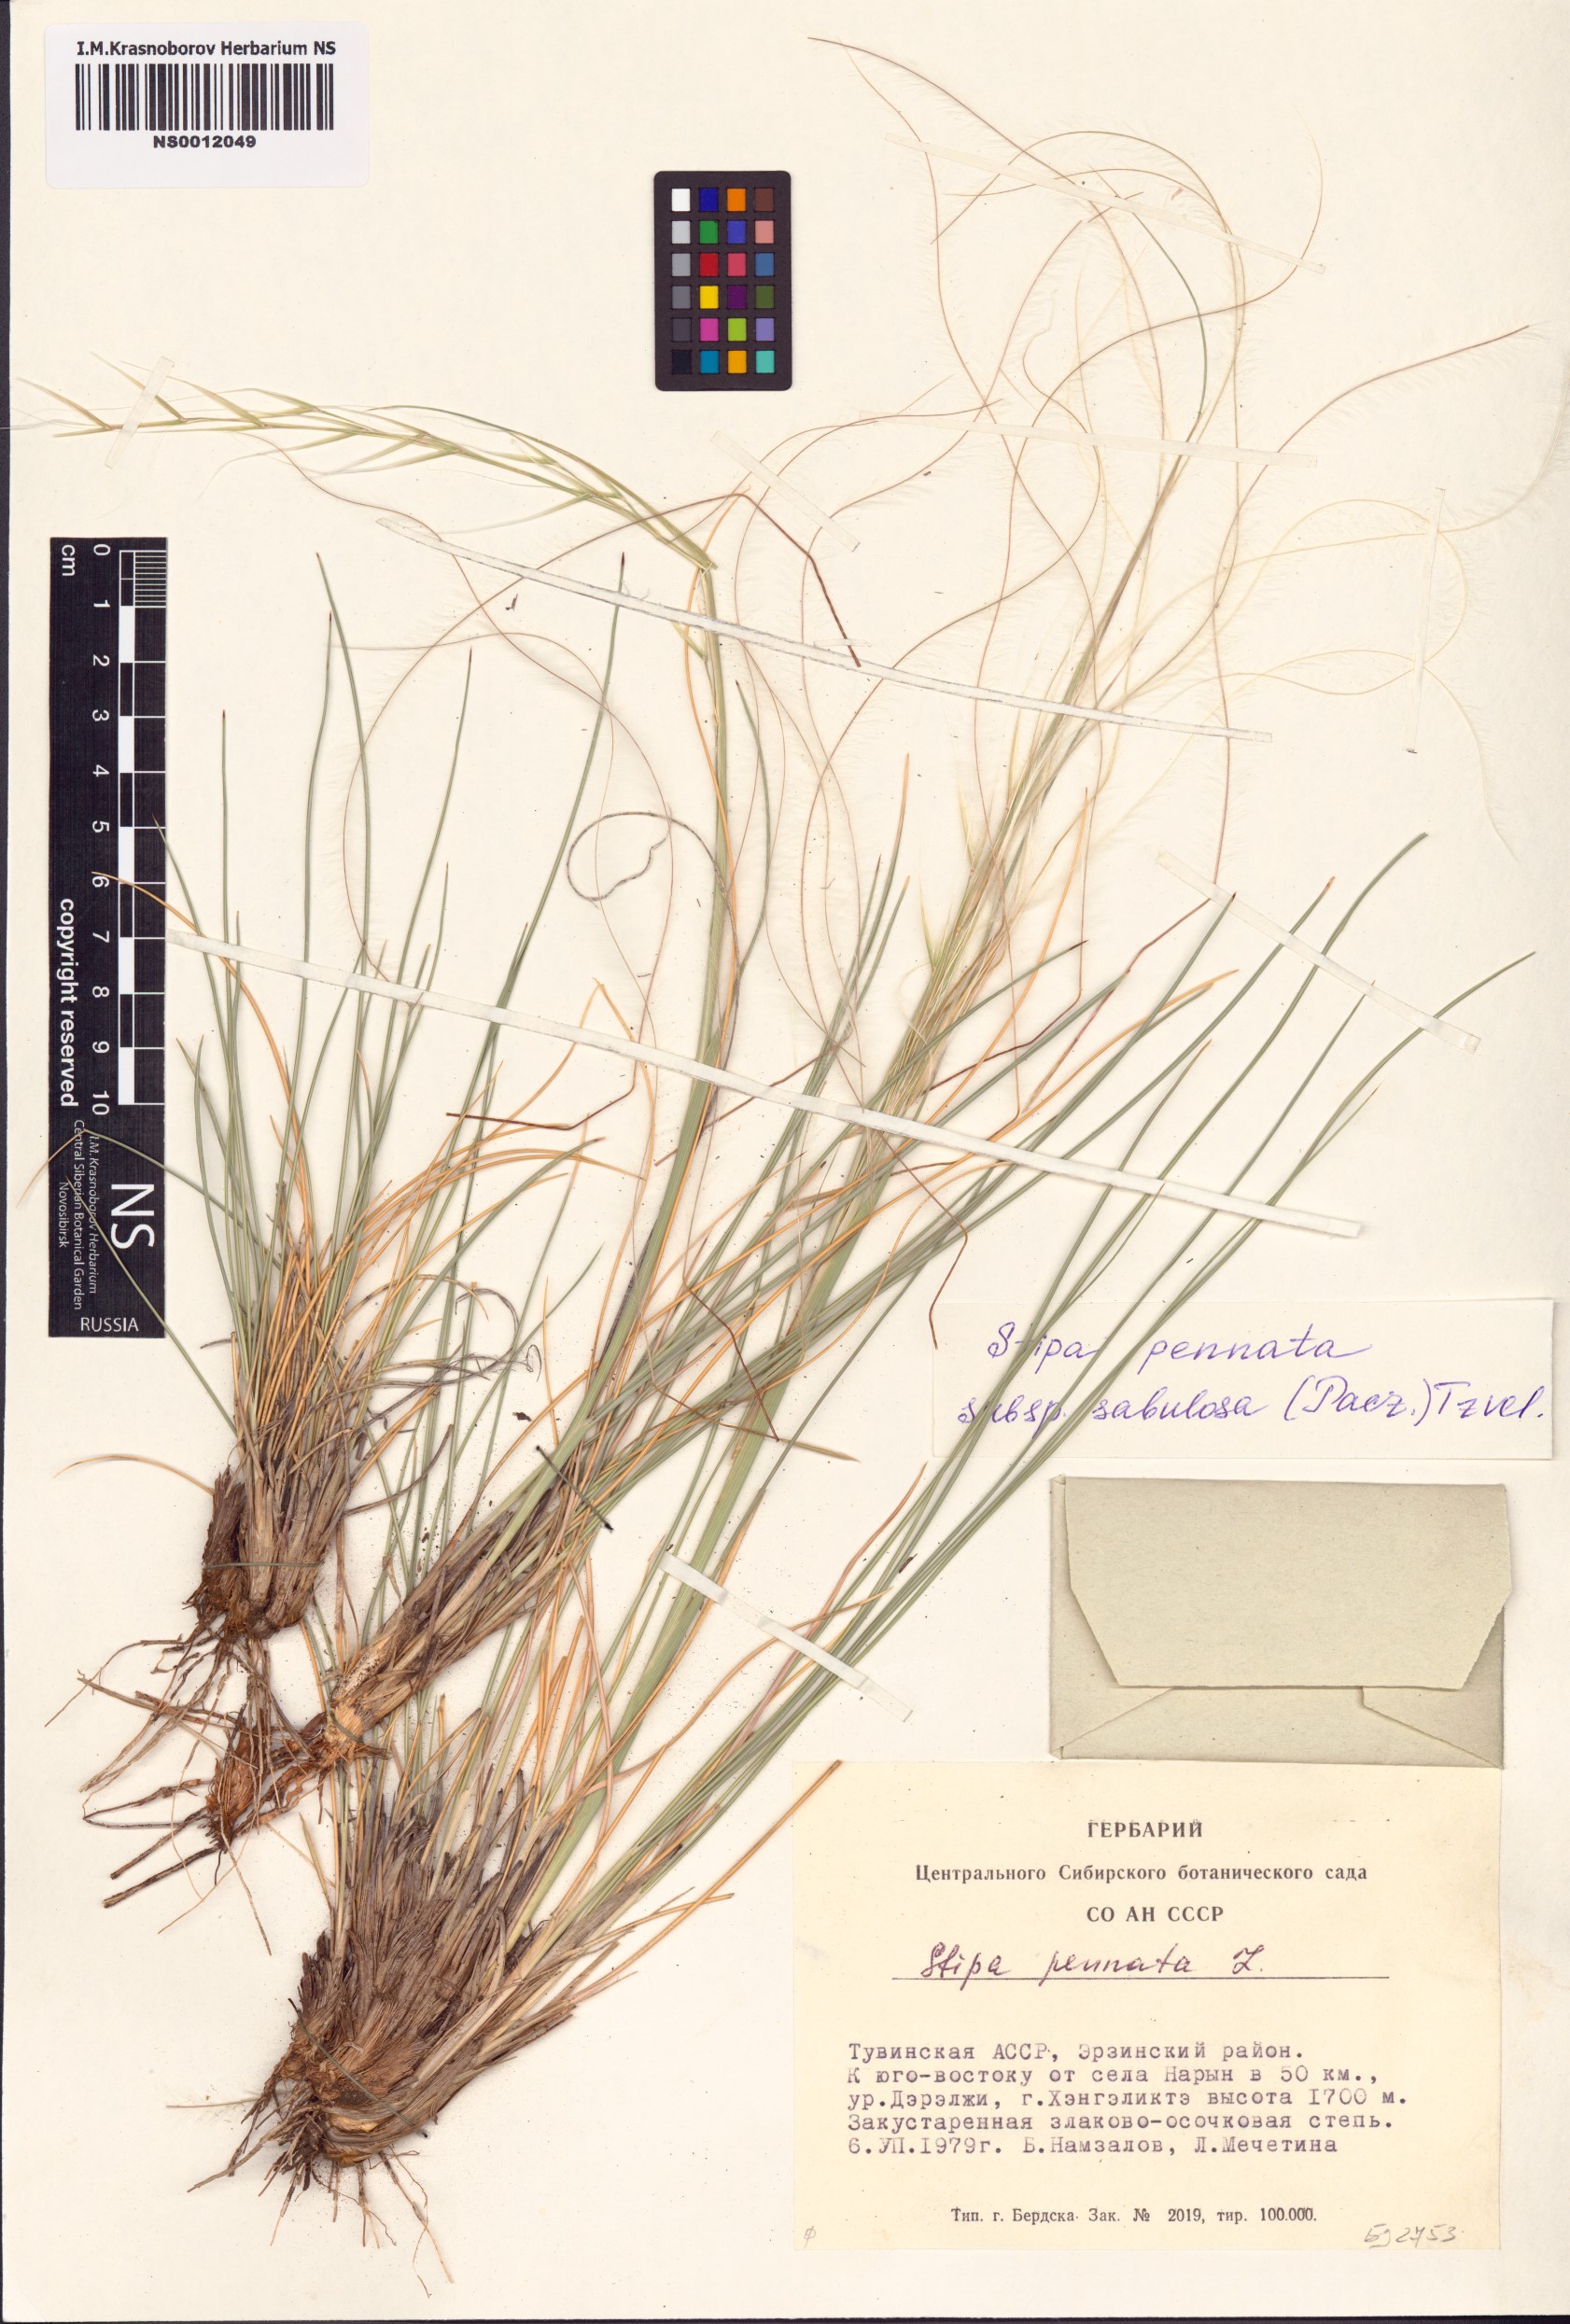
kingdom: Plantae
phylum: Tracheophyta
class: Liliopsida
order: Poales
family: Poaceae
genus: Stipa
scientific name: Stipa borysthenica
